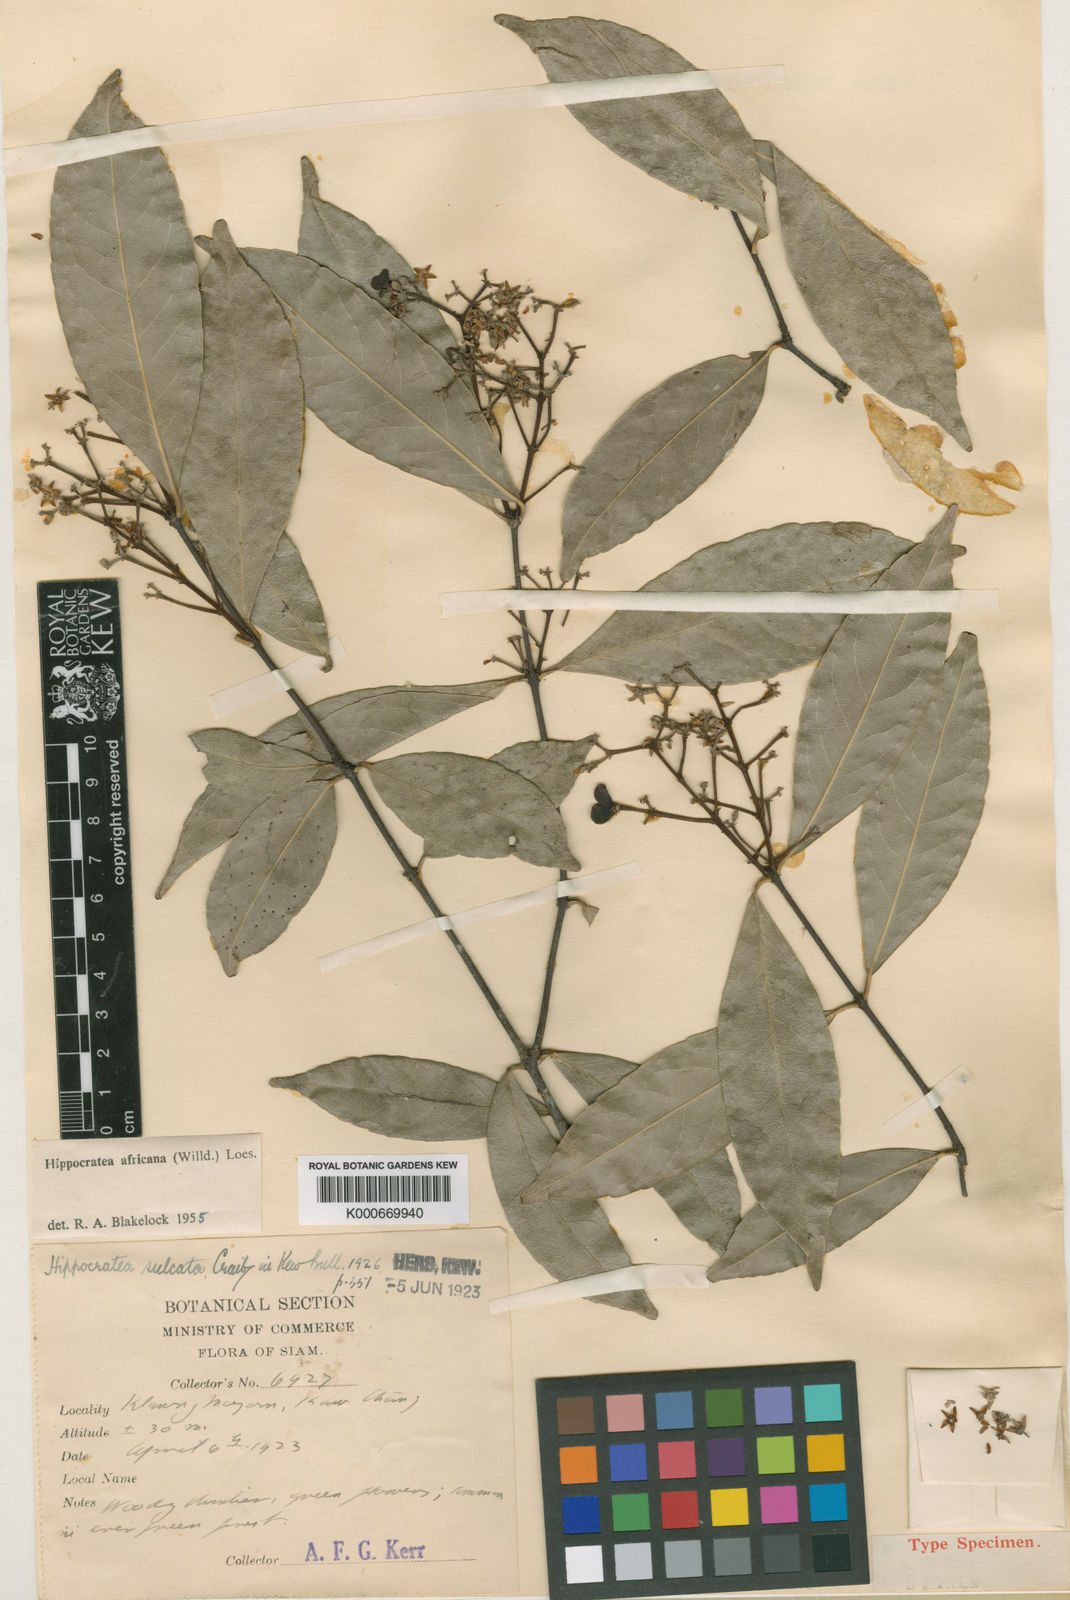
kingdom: Plantae
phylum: Tracheophyta
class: Magnoliopsida
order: Celastrales
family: Celastraceae
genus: Loeseneriella
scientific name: Loeseneriella
